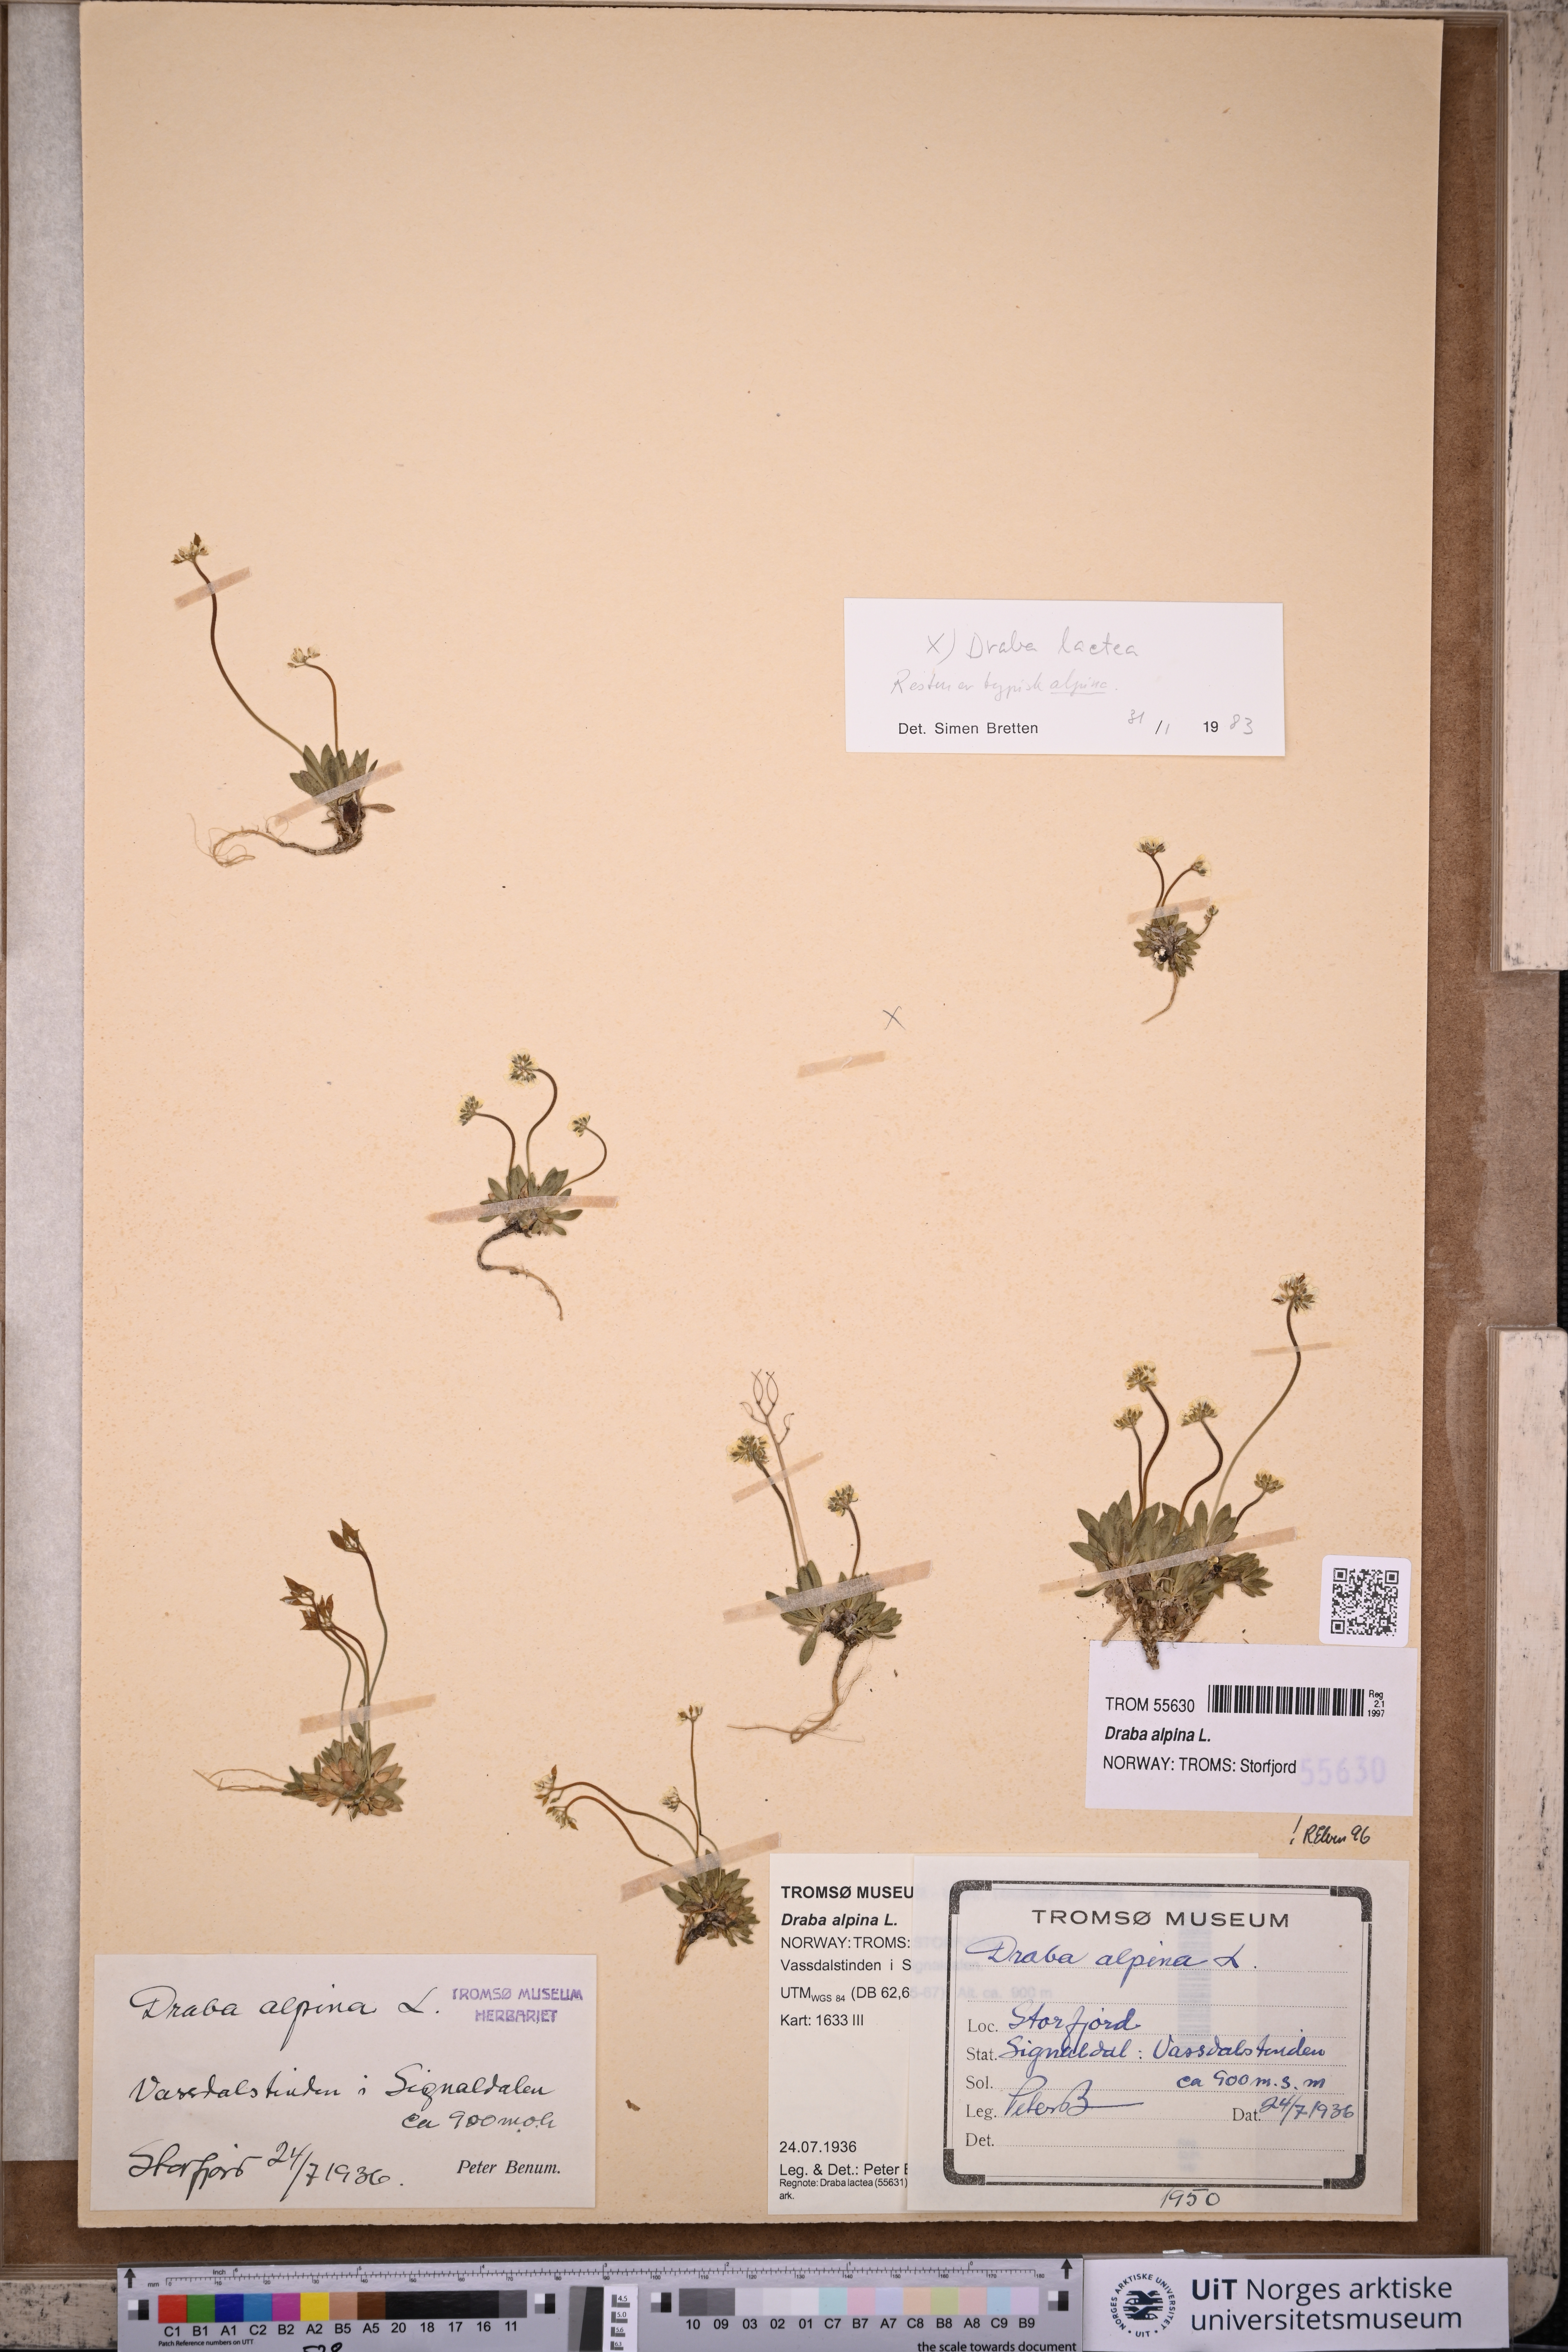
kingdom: Plantae
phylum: Tracheophyta
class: Magnoliopsida
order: Brassicales
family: Brassicaceae
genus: Draba
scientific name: Draba alpina
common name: Alpine draba
